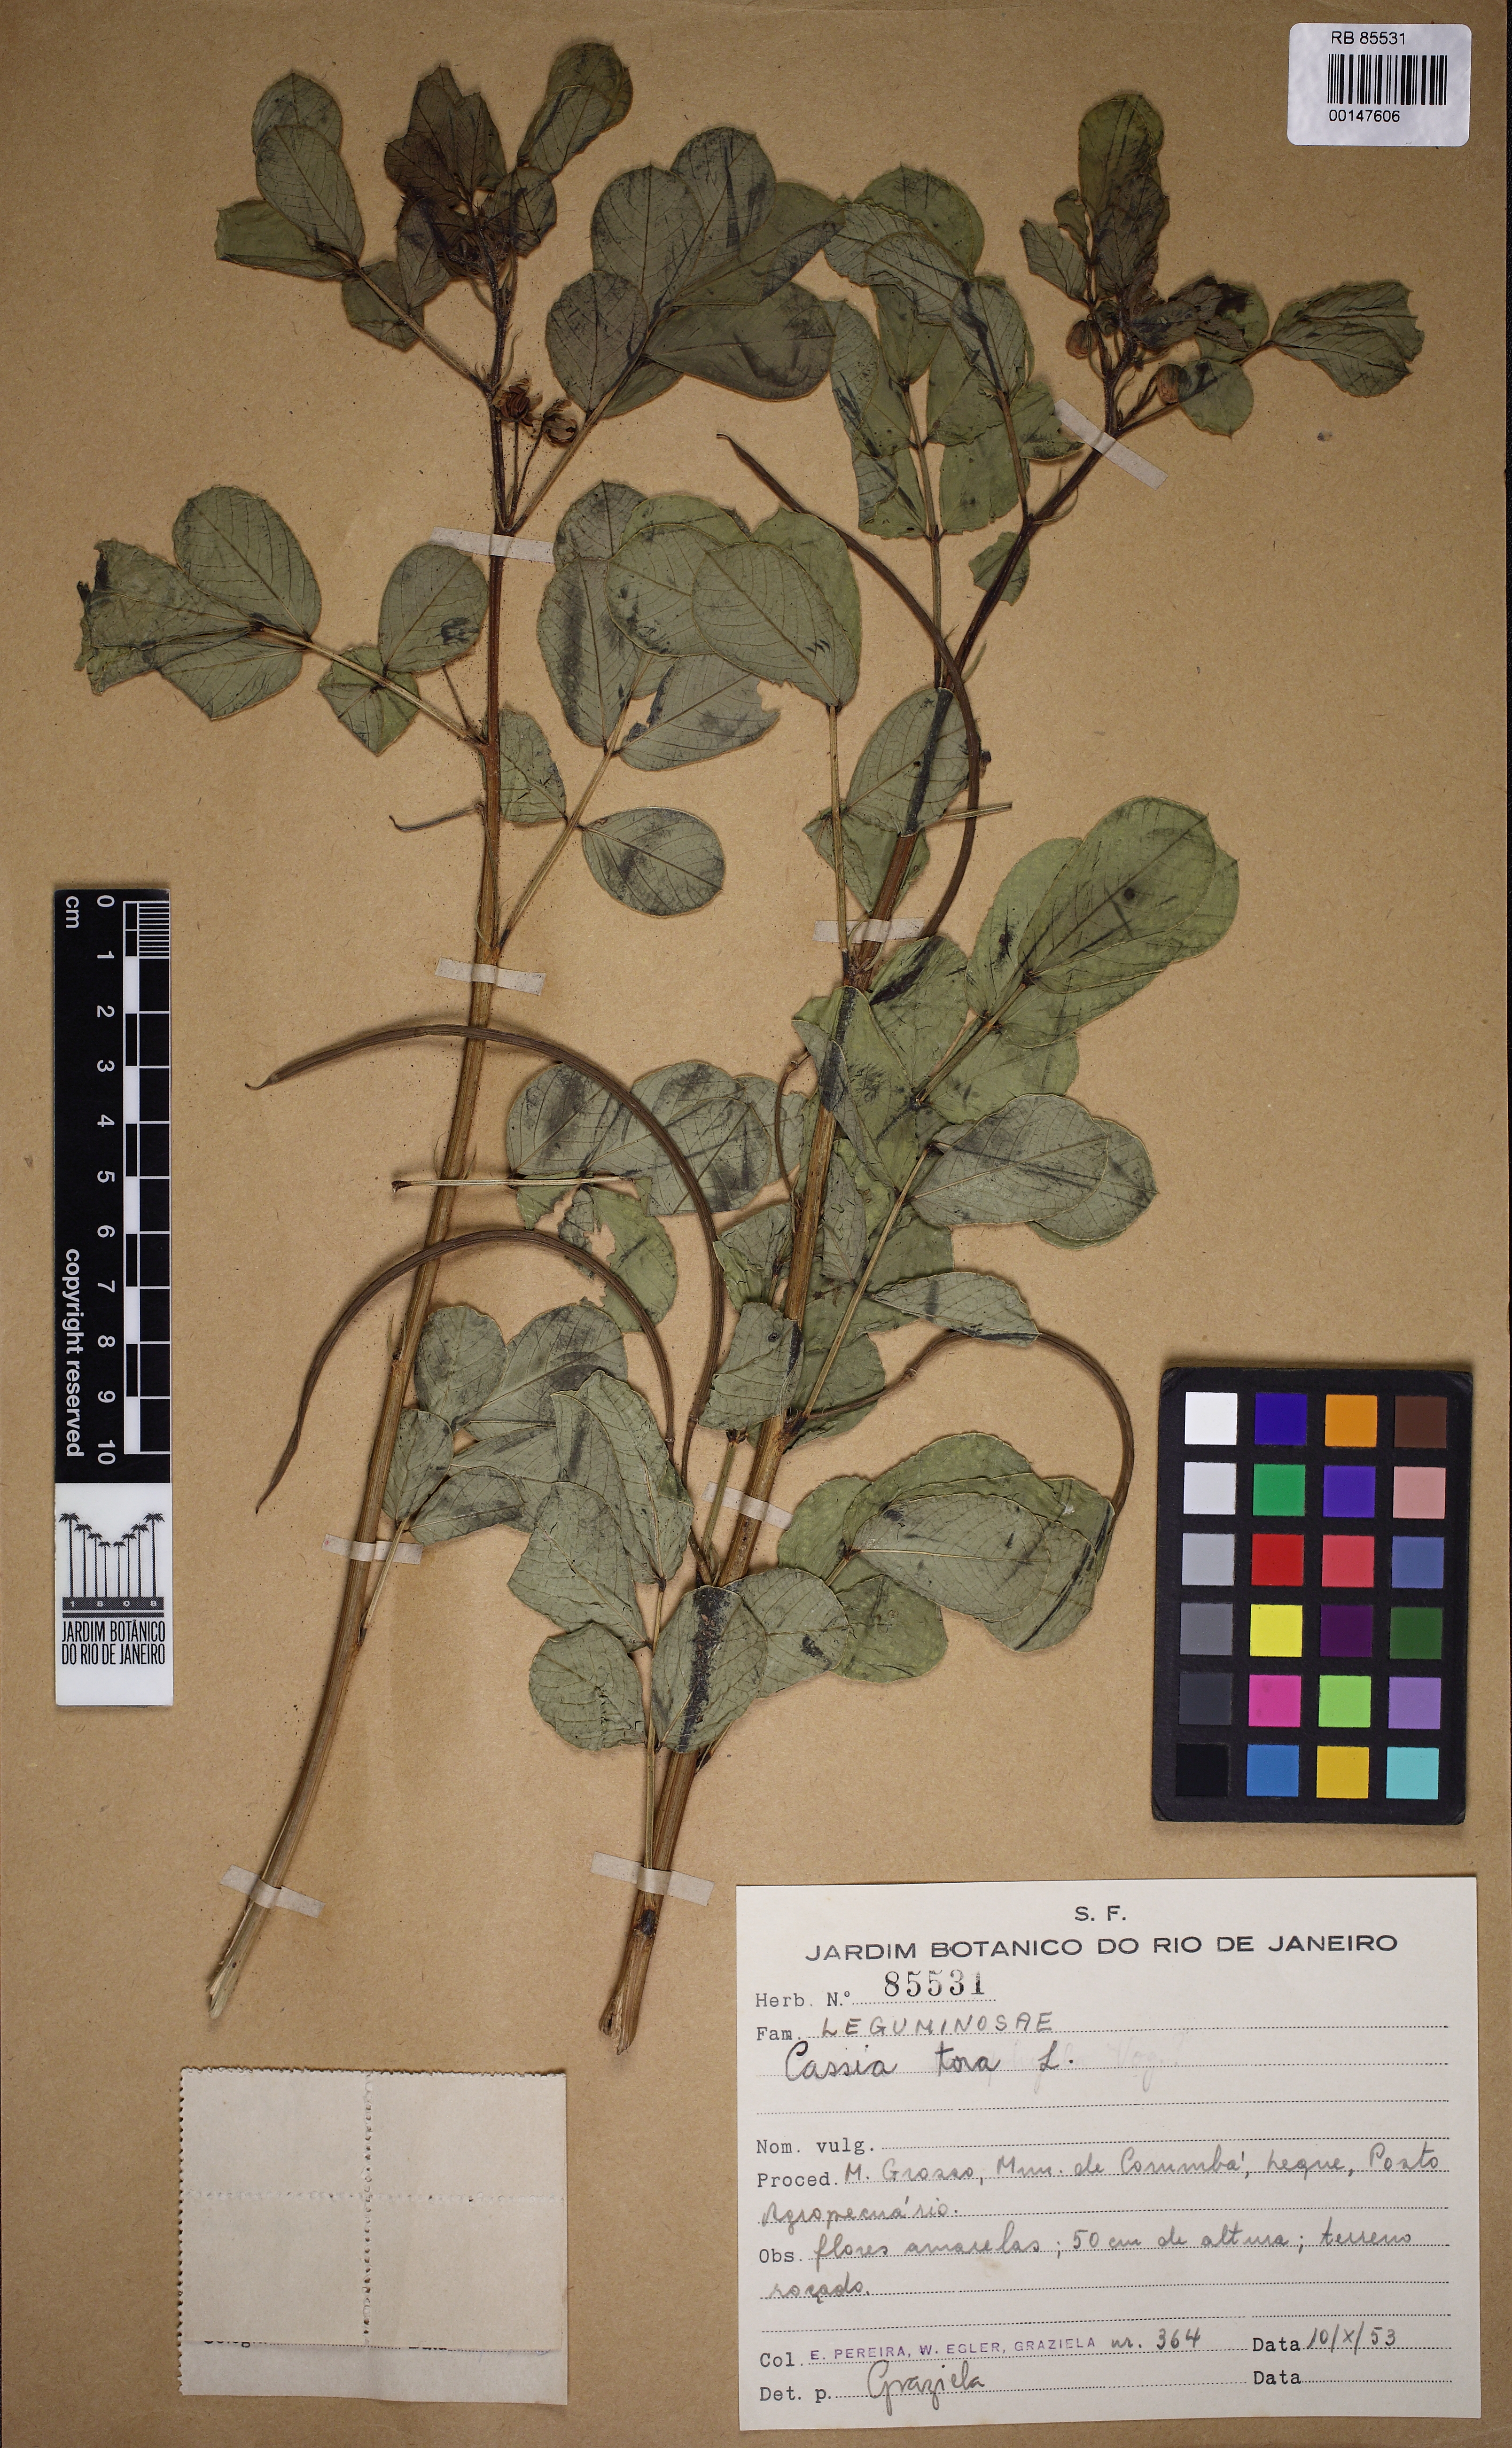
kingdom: Plantae
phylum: Tracheophyta
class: Magnoliopsida
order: Fabales
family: Fabaceae
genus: Senna
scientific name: Senna tora
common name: Sickle senna
